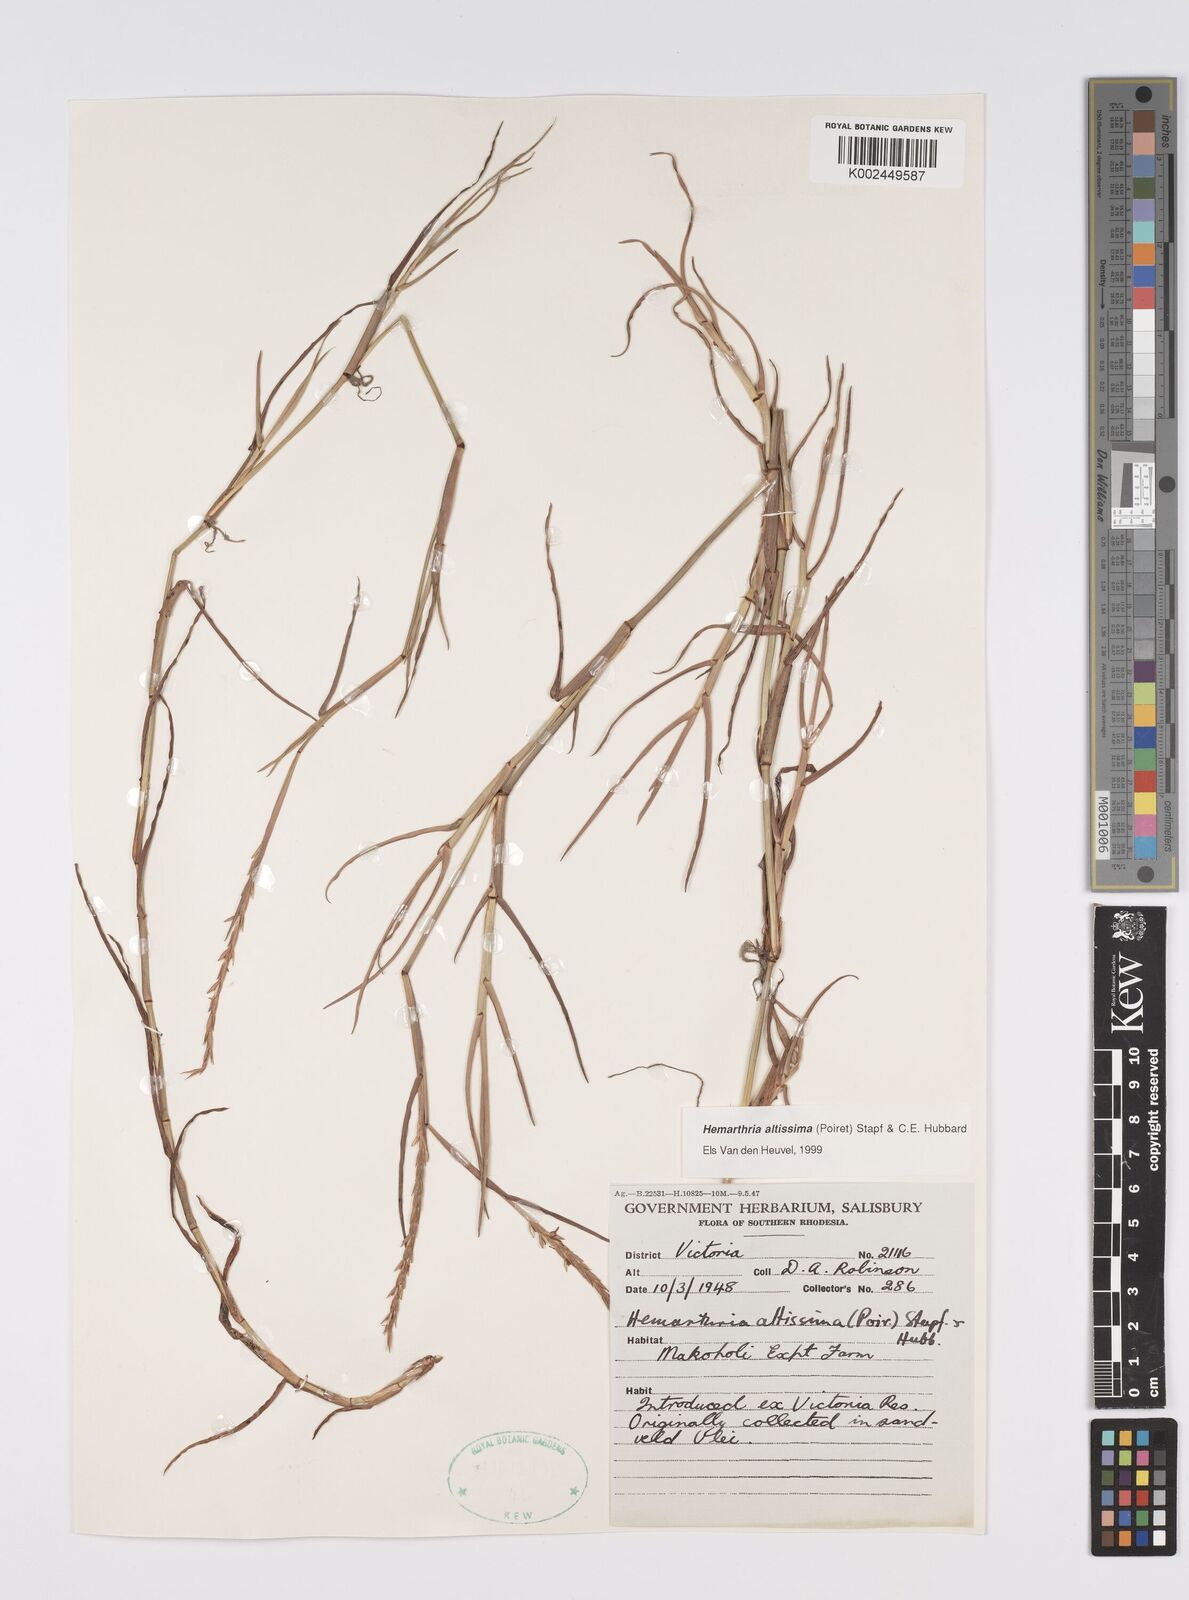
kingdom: Plantae
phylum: Tracheophyta
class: Liliopsida
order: Poales
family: Poaceae
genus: Hemarthria
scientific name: Hemarthria altissima
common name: African jointgrass
